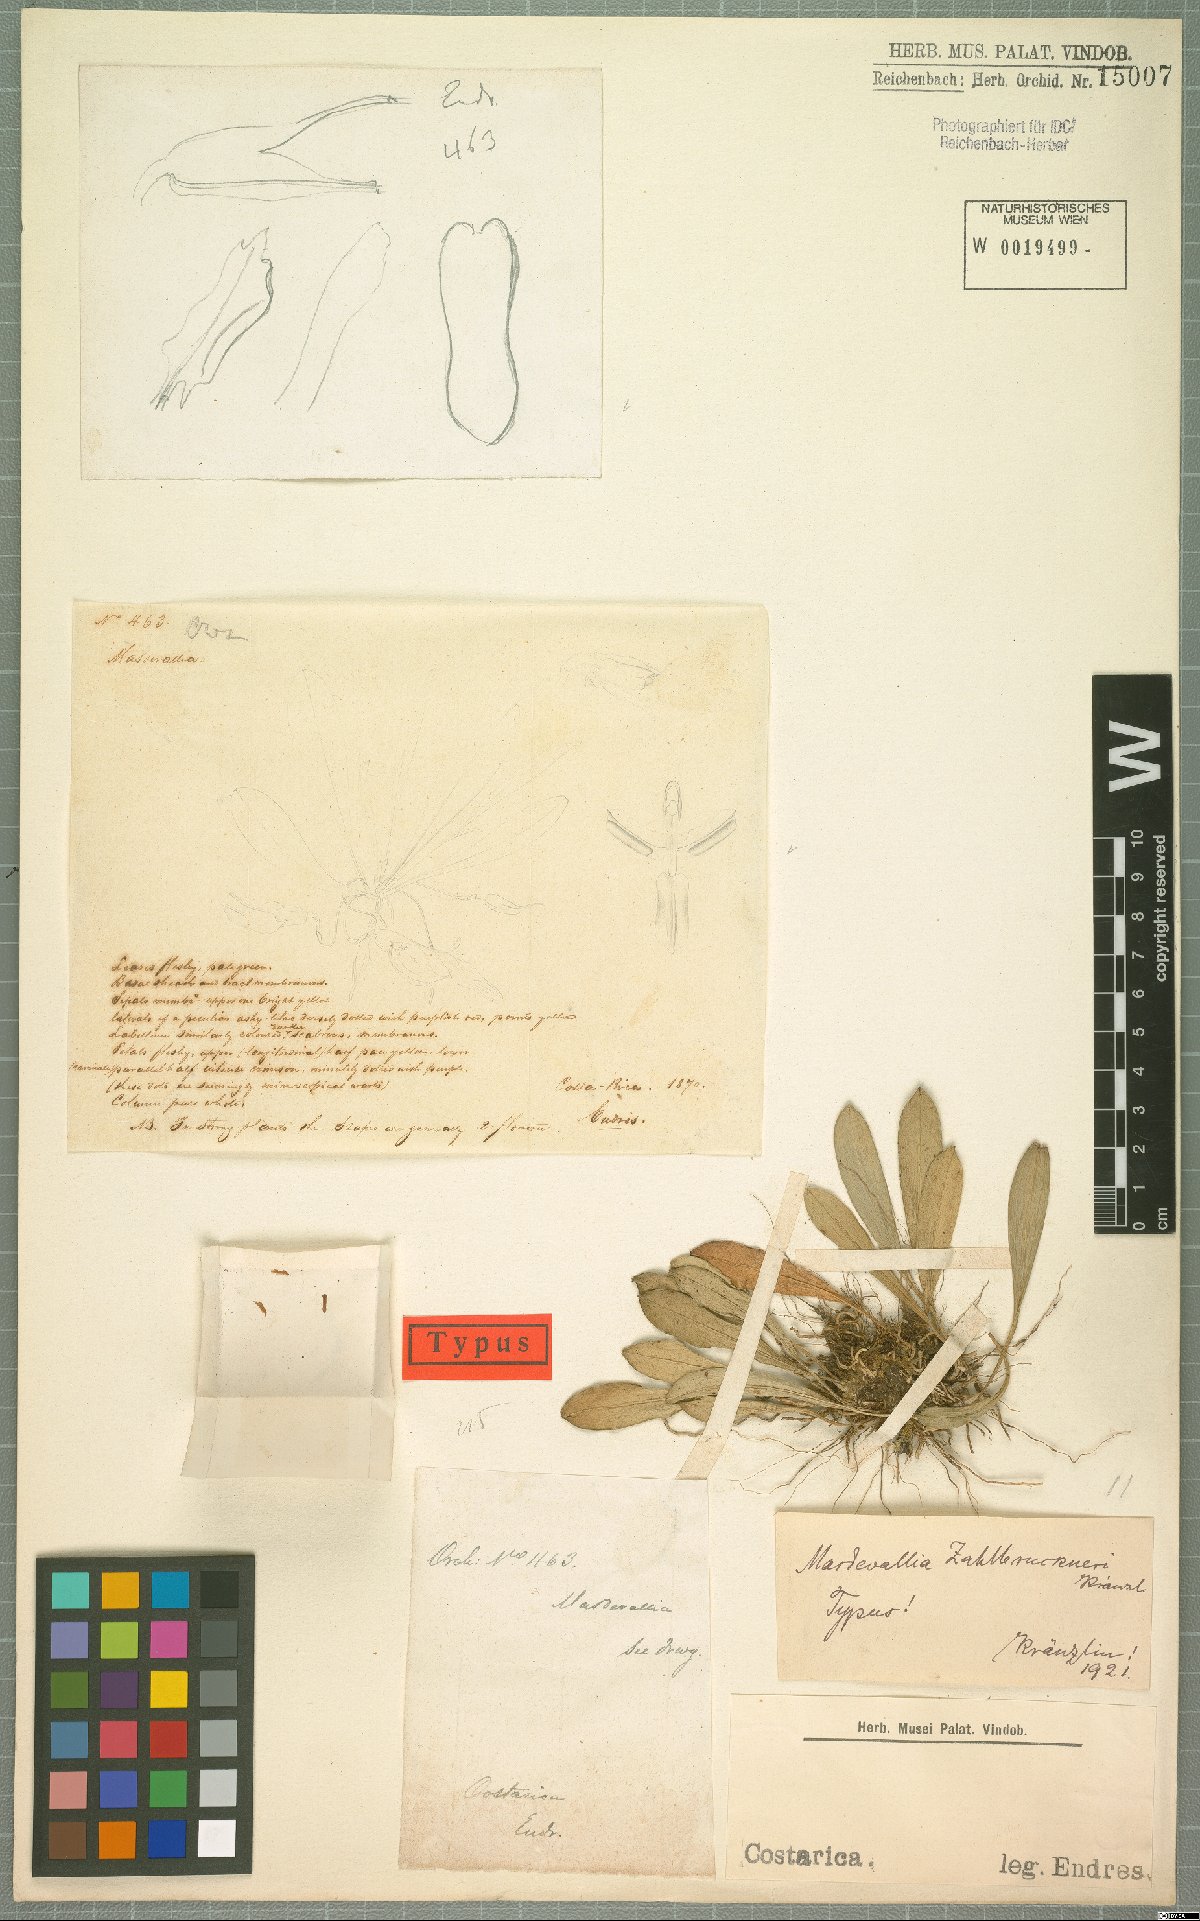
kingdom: Plantae
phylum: Tracheophyta
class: Liliopsida
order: Asparagales
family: Orchidaceae
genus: Masdevallia
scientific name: Masdevallia zahlbruckneri
